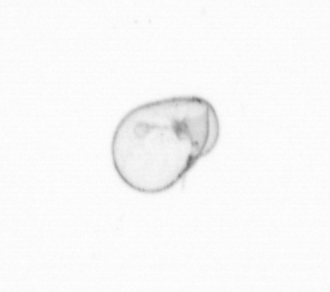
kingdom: Chromista
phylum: Myzozoa
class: Dinophyceae
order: Noctilucales
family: Noctilucaceae
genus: Noctiluca
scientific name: Noctiluca scintillans
